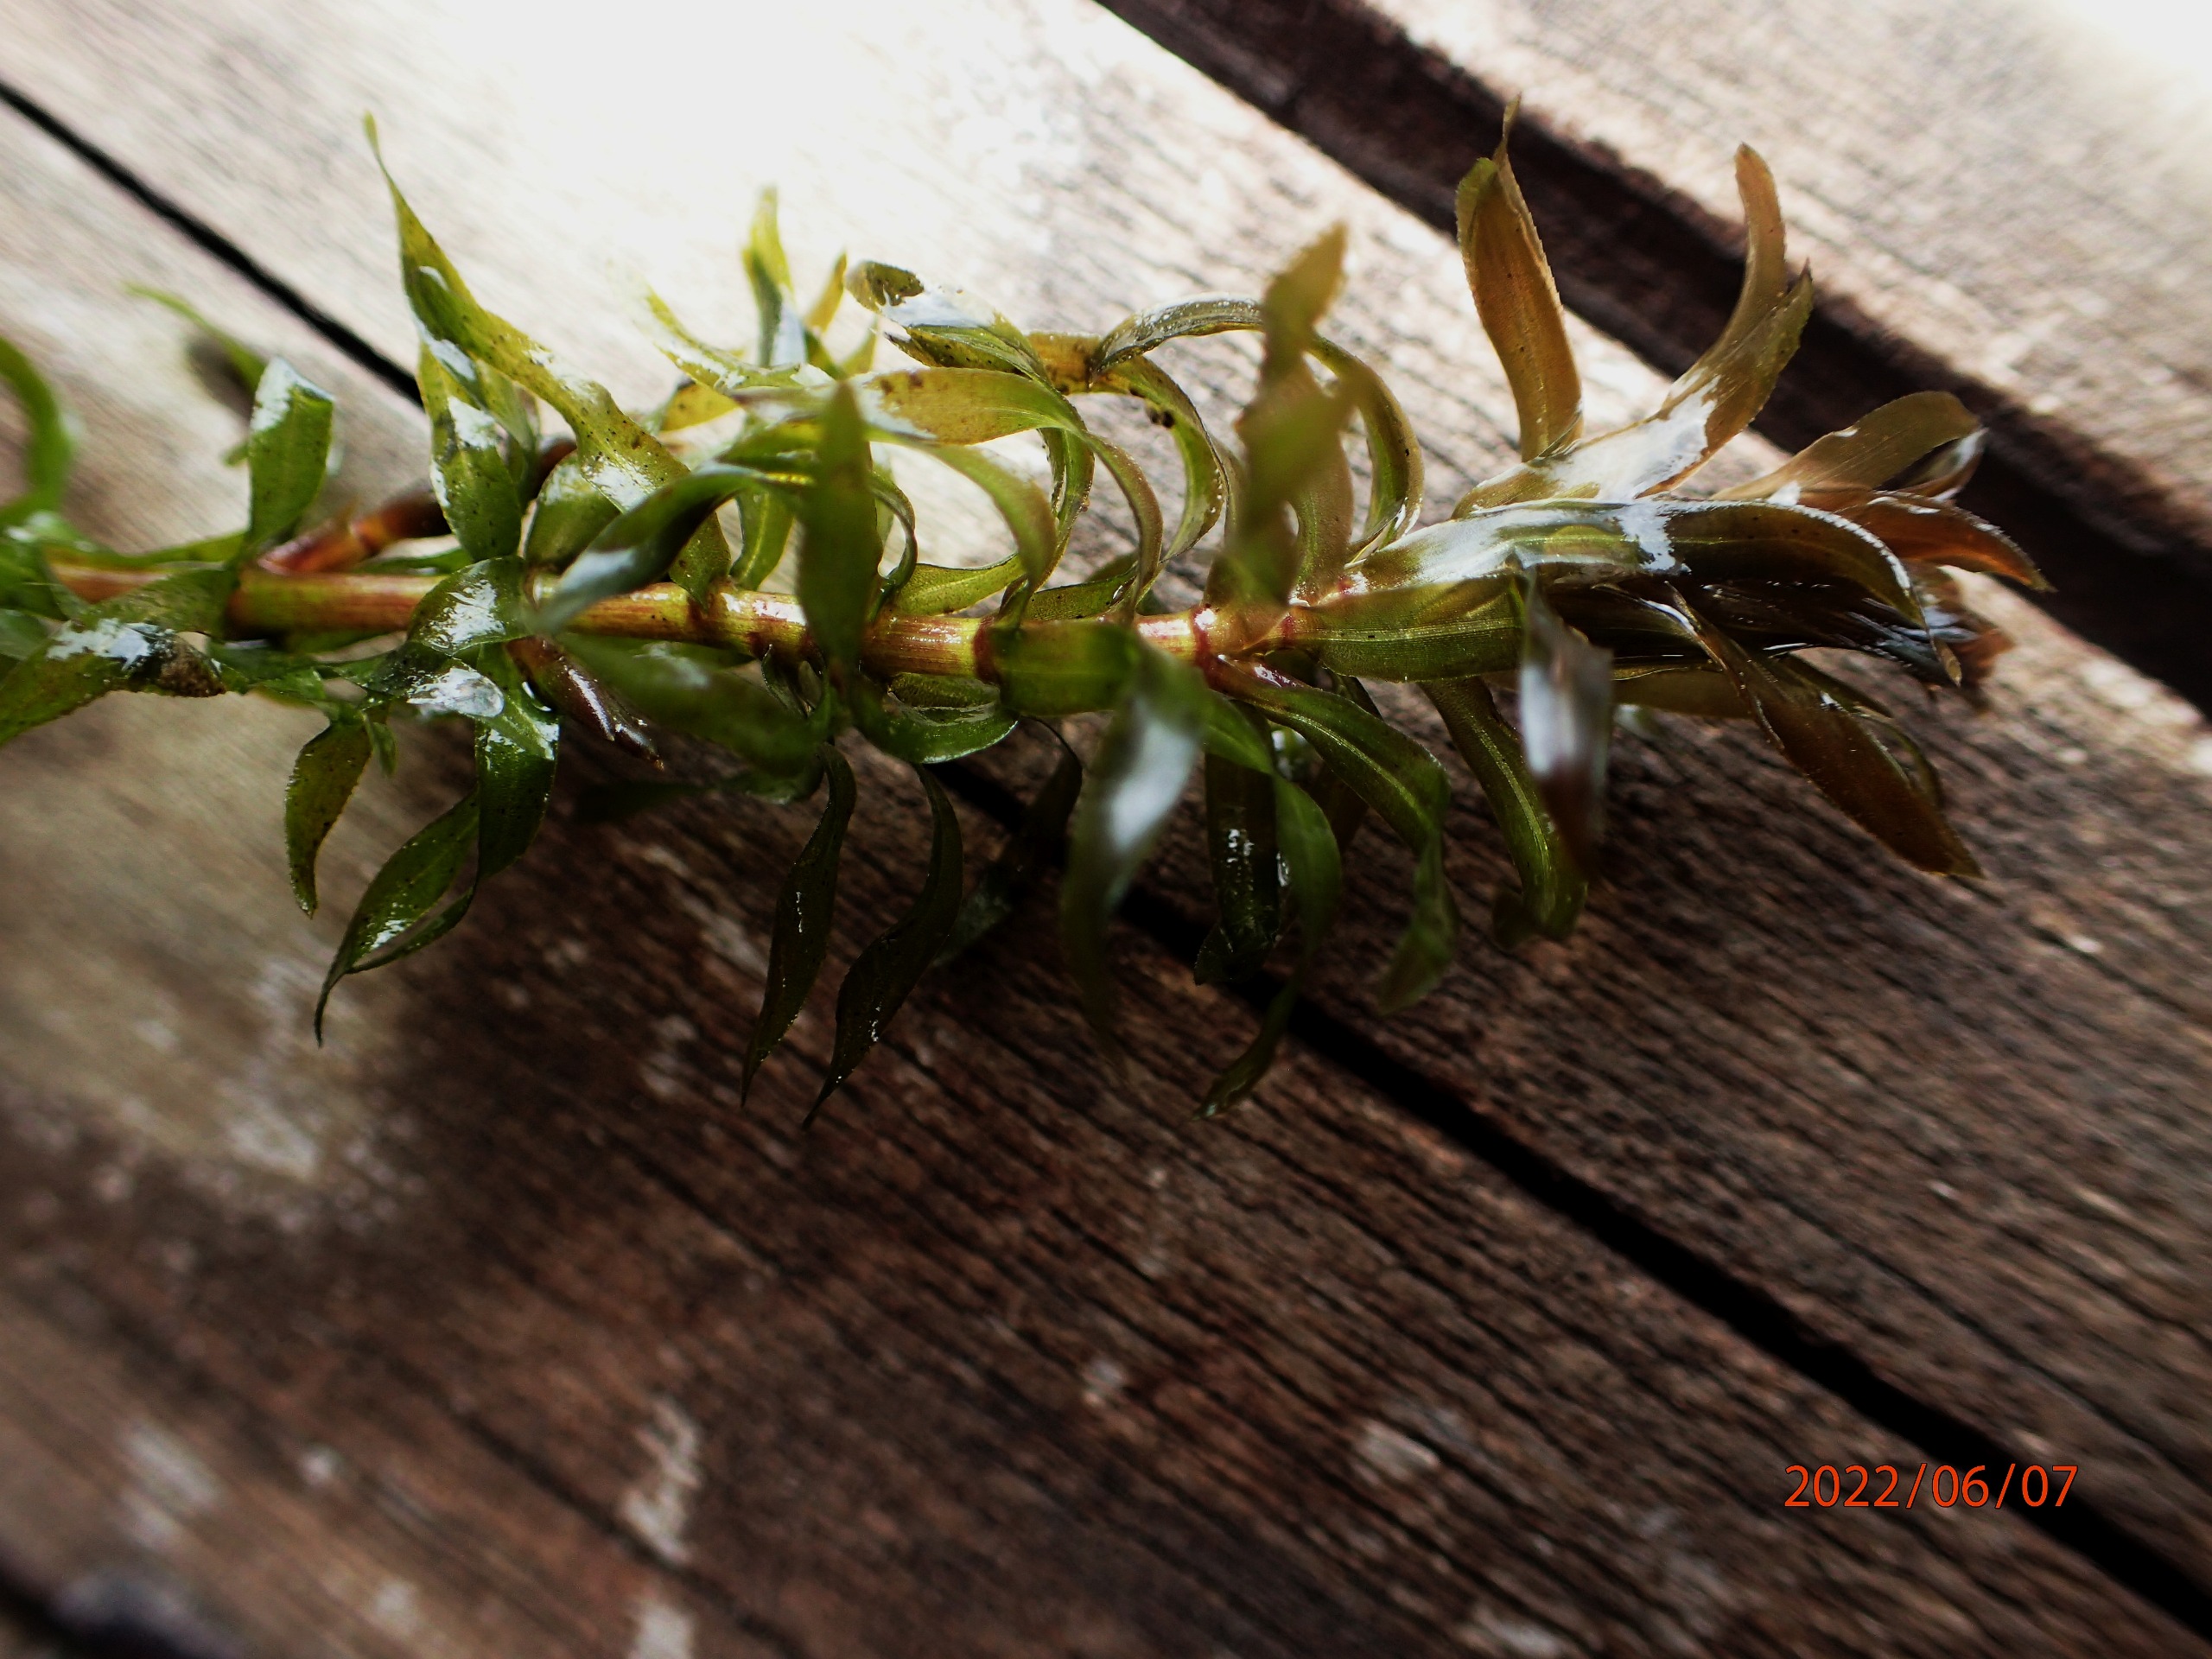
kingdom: Plantae
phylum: Tracheophyta
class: Liliopsida
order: Alismatales
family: Hydrocharitaceae
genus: Elodea
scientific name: Elodea nuttallii
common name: Smalbladet vandpest
